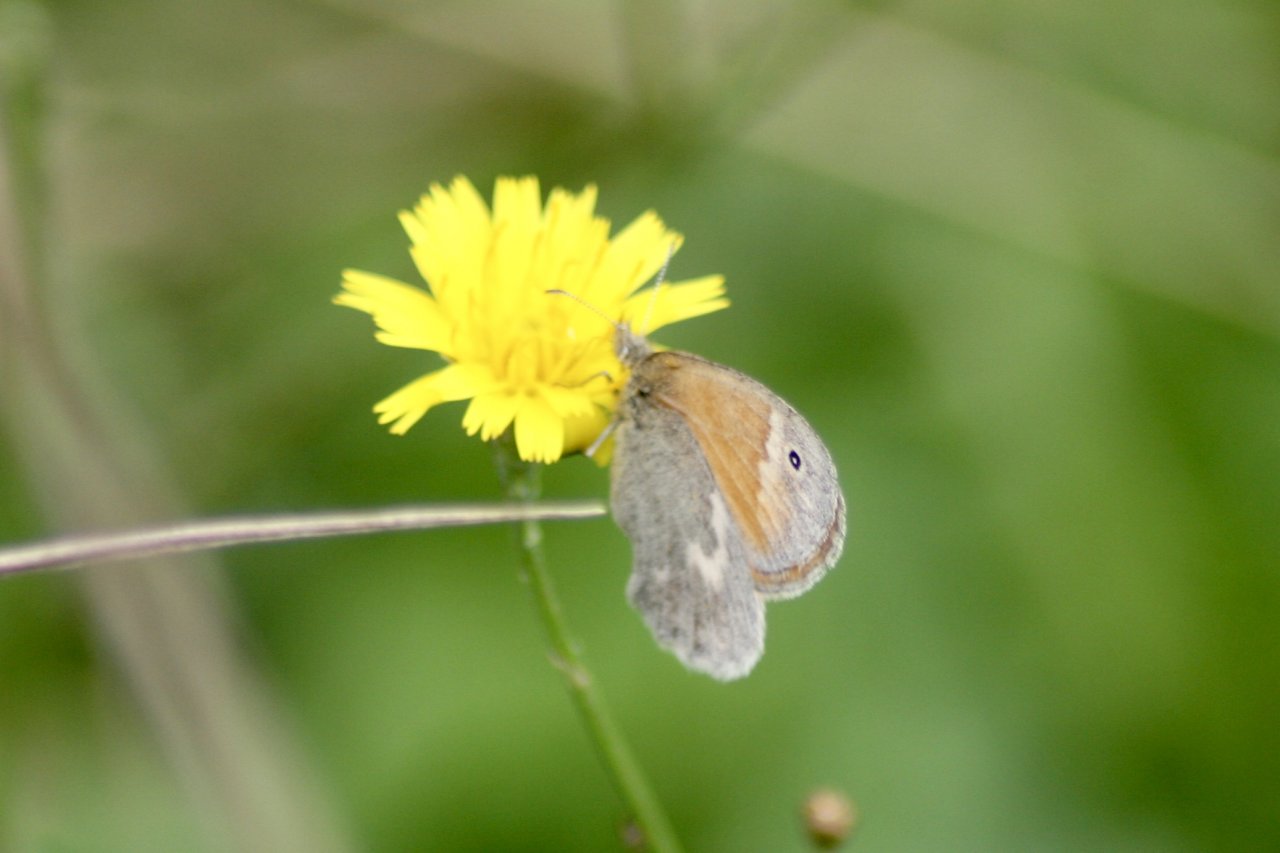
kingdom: Animalia
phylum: Arthropoda
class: Insecta
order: Lepidoptera
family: Nymphalidae
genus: Coenonympha
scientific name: Coenonympha tullia
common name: Large Heath
